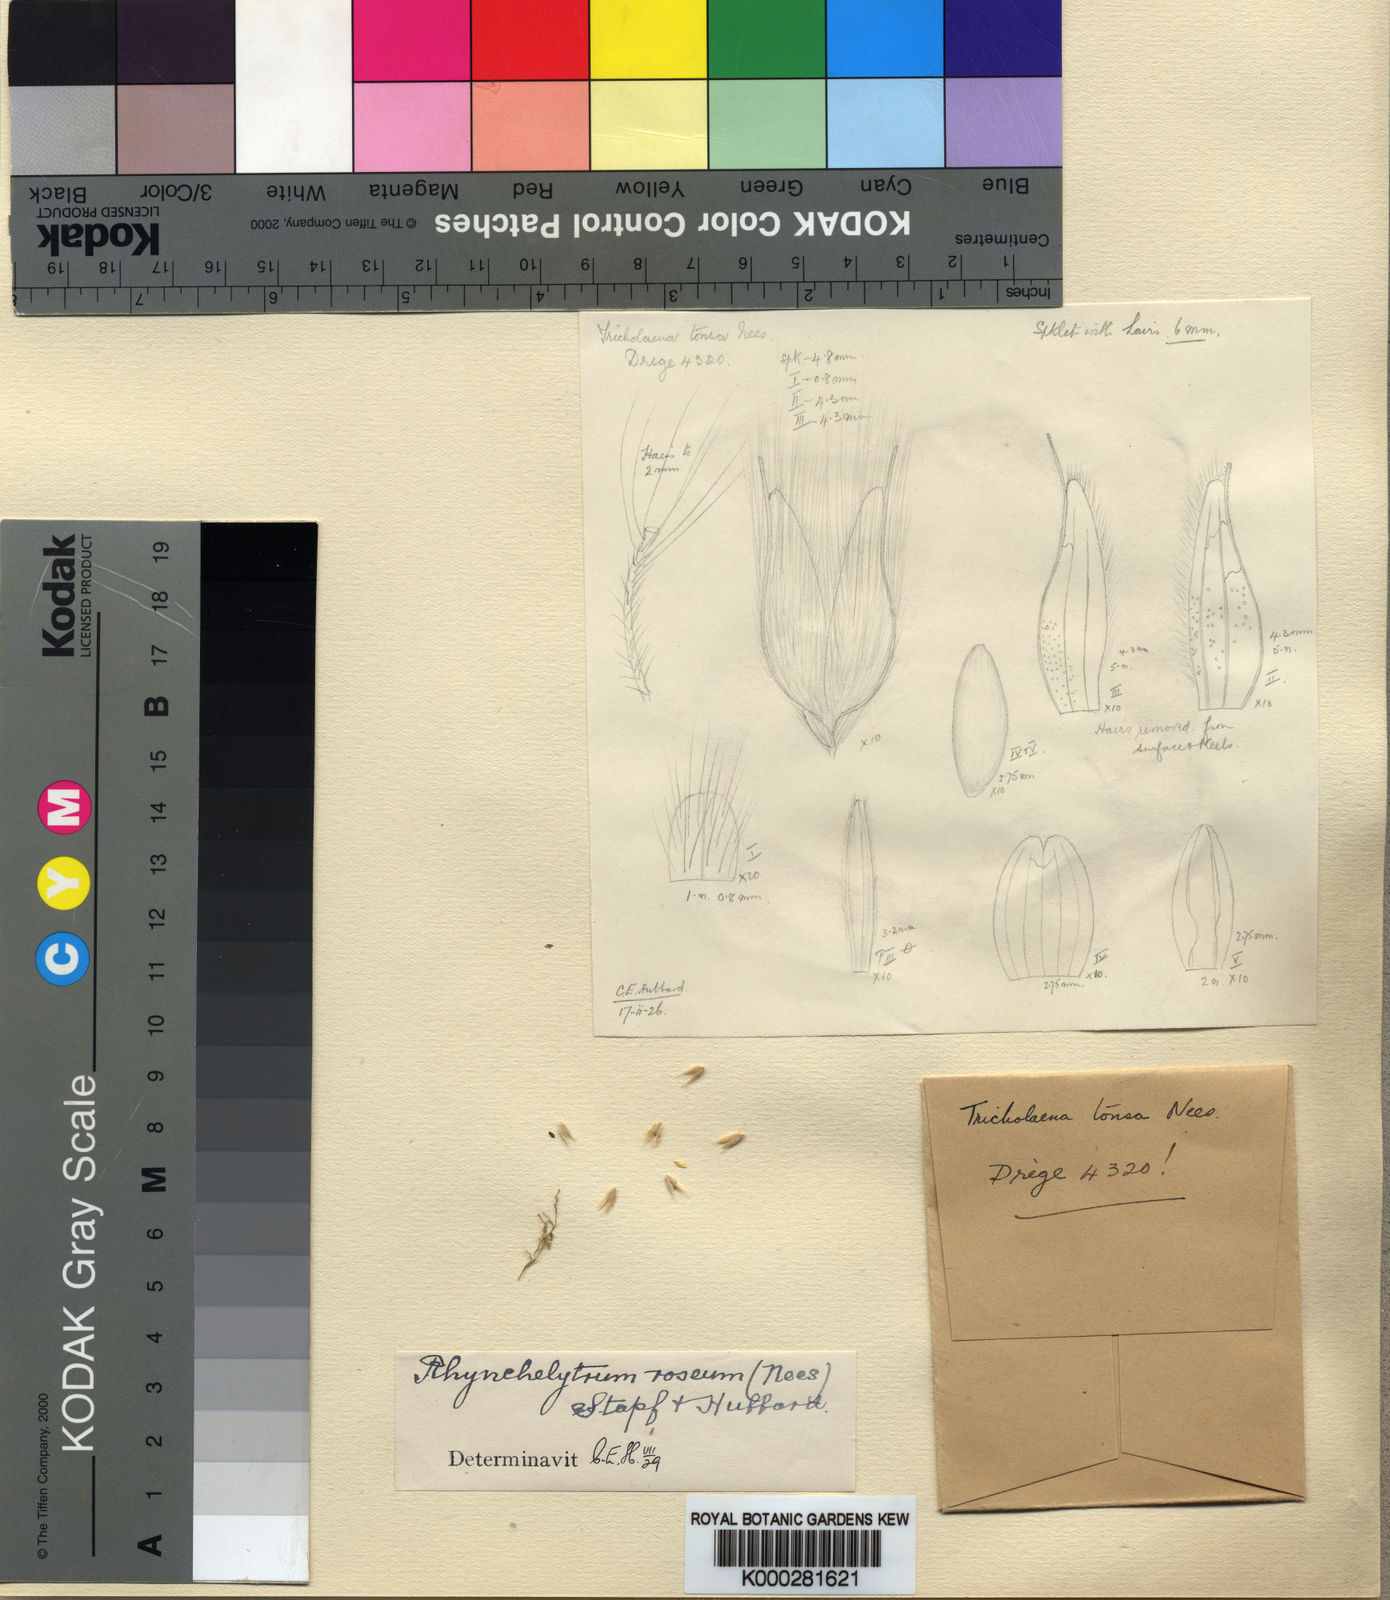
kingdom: Plantae
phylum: Tracheophyta
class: Liliopsida
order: Poales
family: Poaceae
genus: Melinis
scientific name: Melinis repens
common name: Rose natal grass
